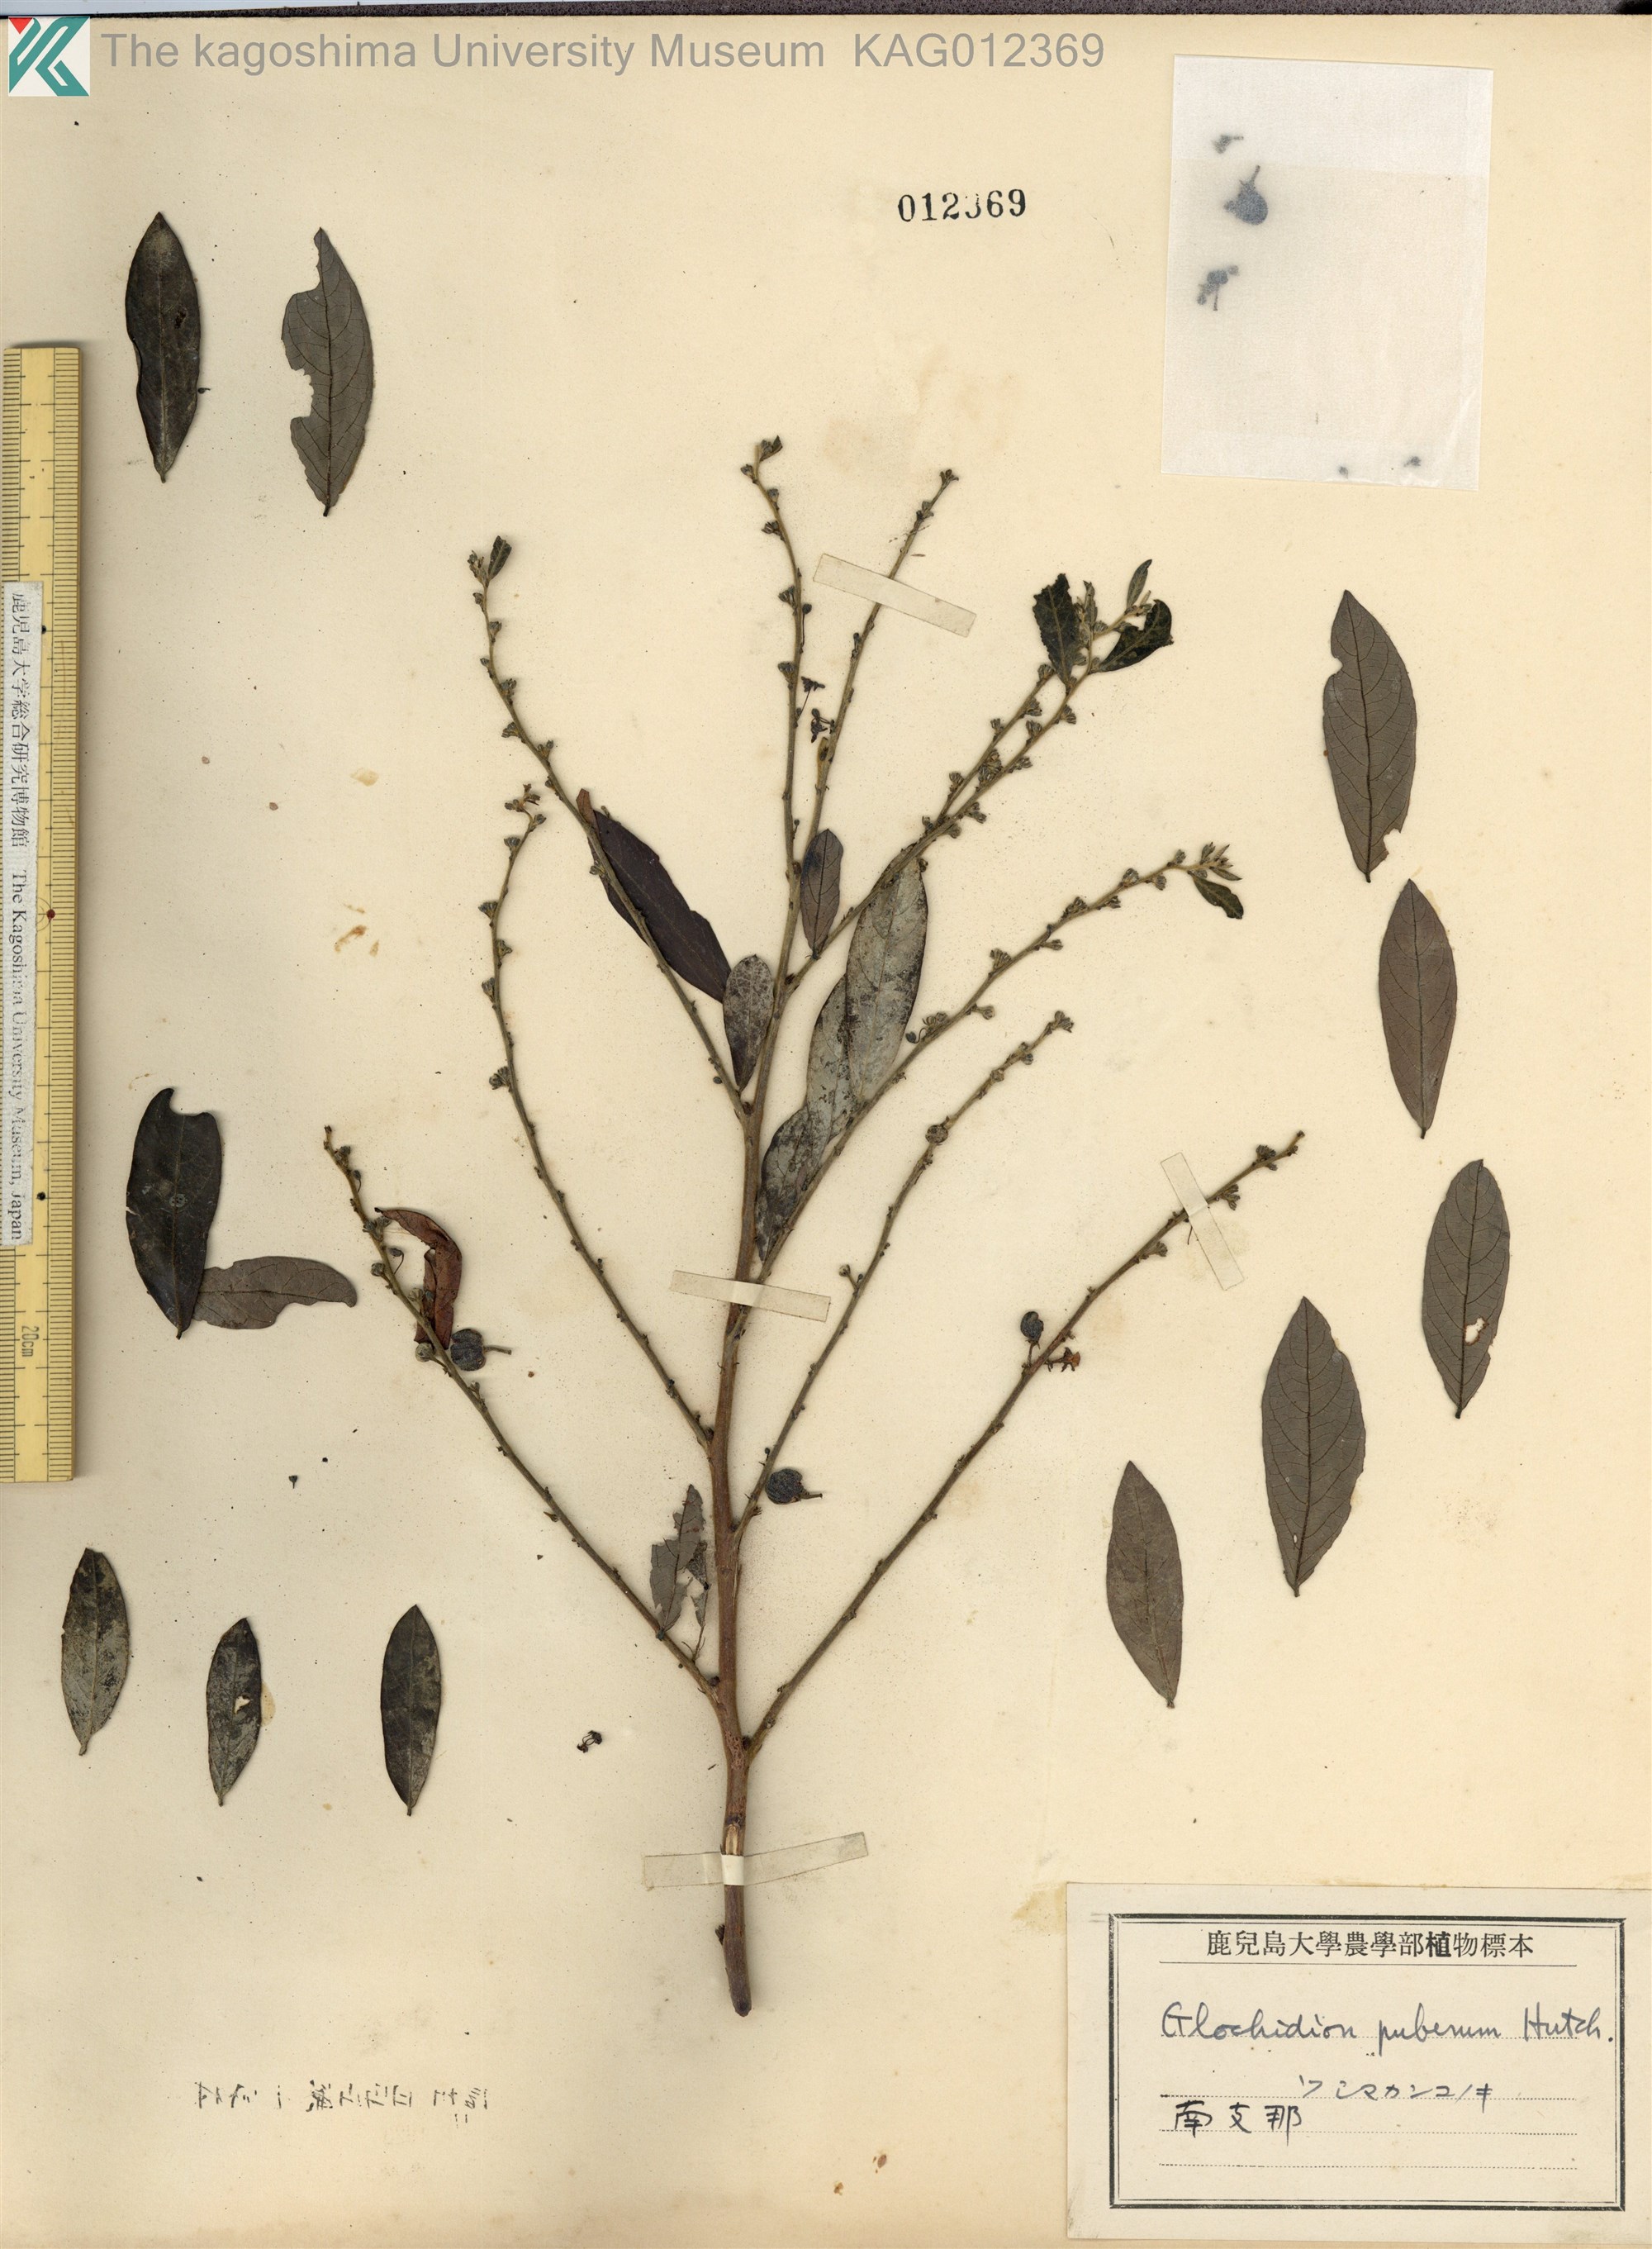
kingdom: Plantae
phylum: Tracheophyta
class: Magnoliopsida
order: Malpighiales
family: Phyllanthaceae
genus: Glochidion
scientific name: Glochidion puberum
